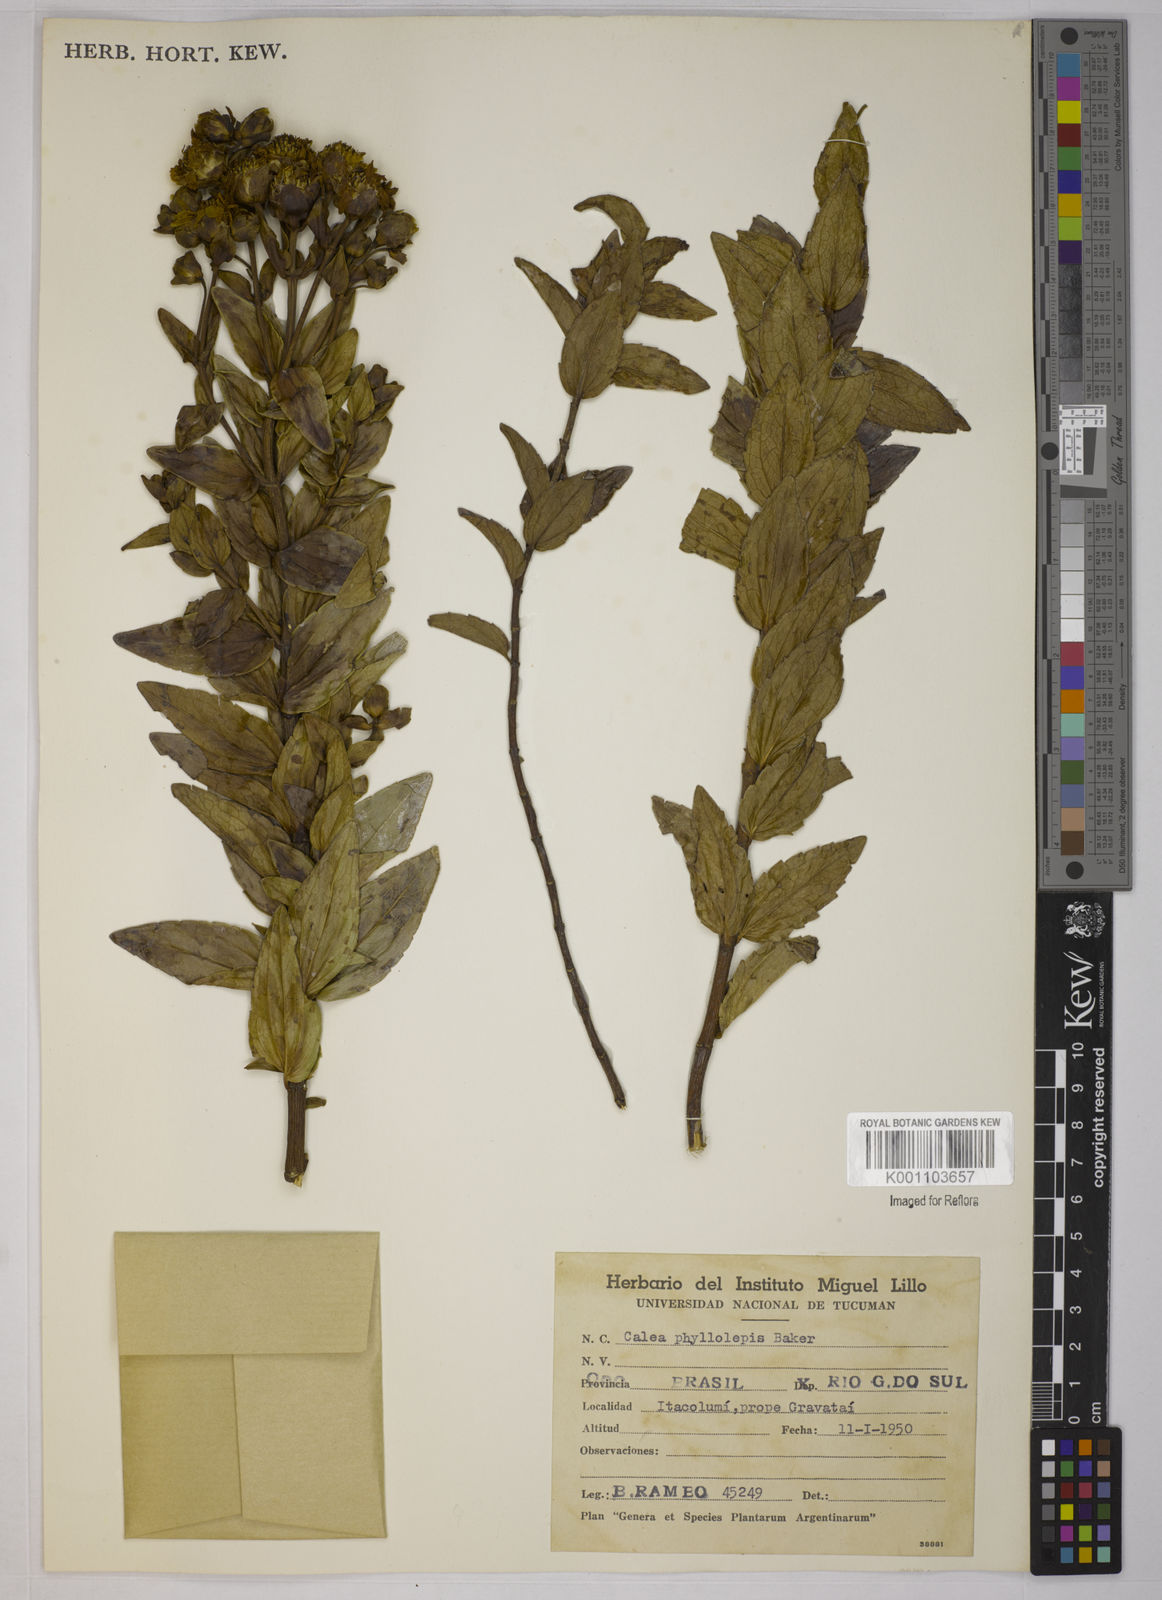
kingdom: Plantae
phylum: Tracheophyta
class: Magnoliopsida
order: Asterales
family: Asteraceae
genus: Calea
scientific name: Calea phyllolepis
